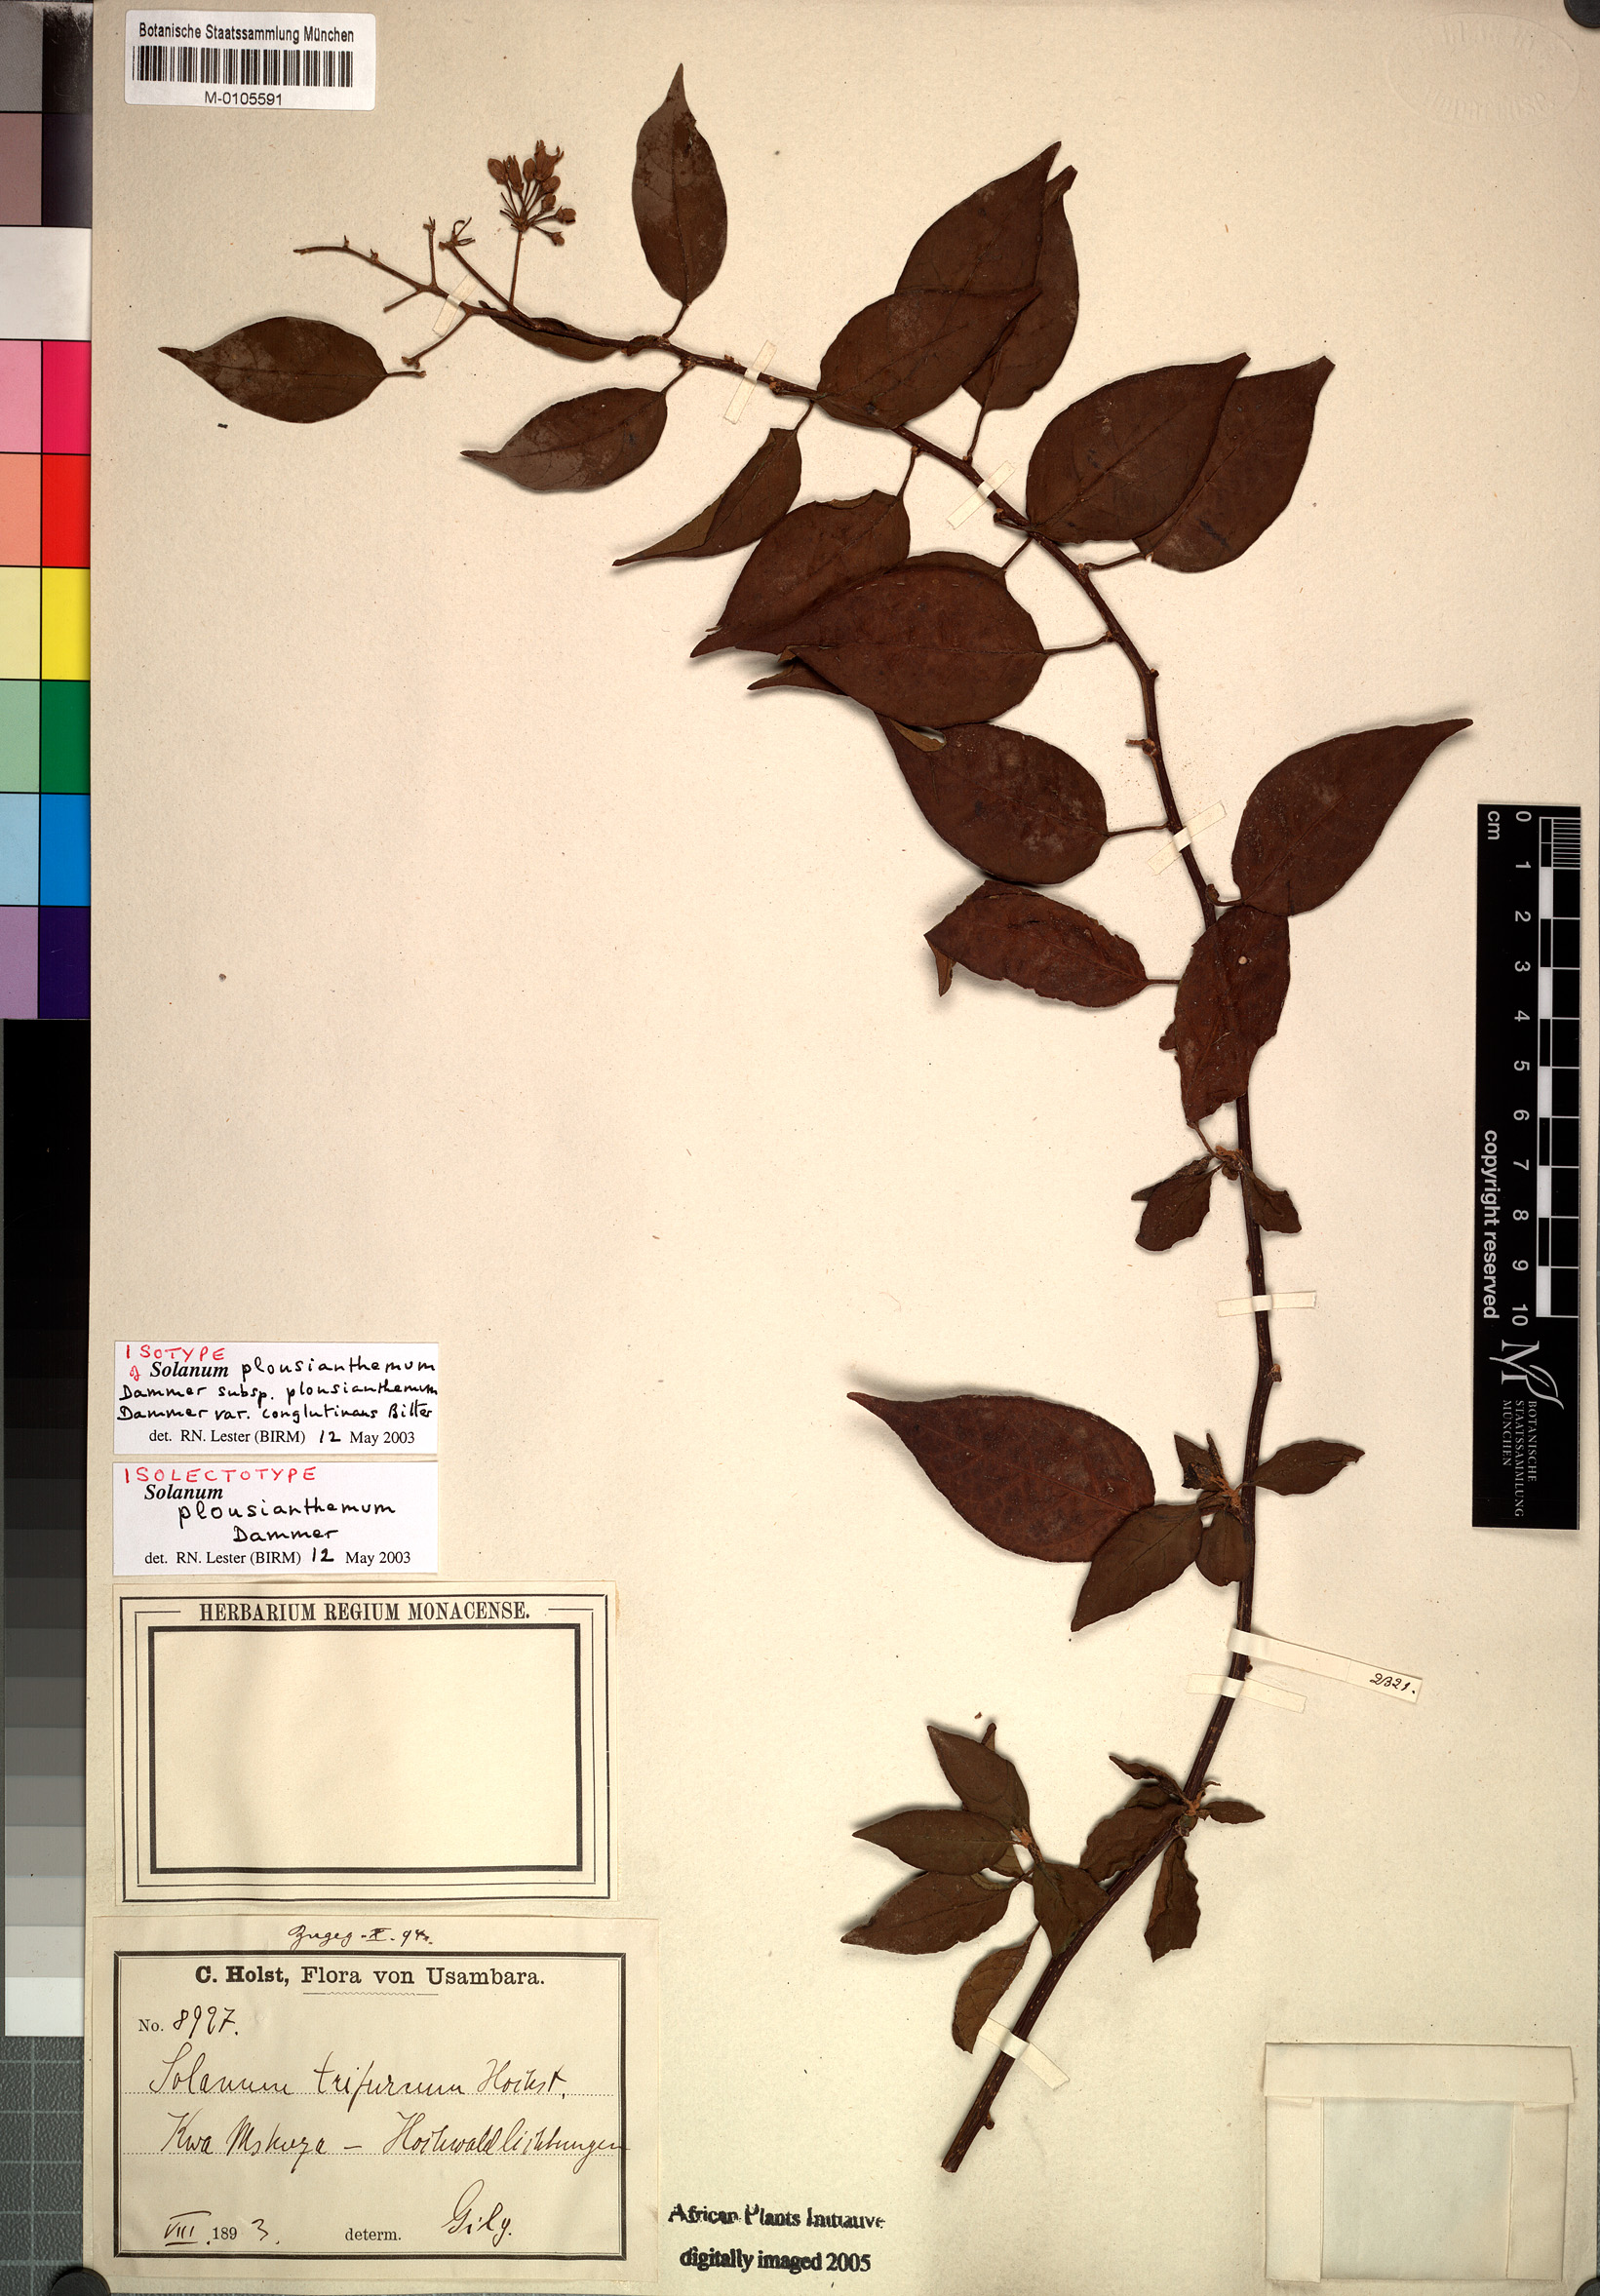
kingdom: Plantae
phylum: Tracheophyta
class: Magnoliopsida
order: Solanales
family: Solanaceae
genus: Solanum
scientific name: Solanum terminale
